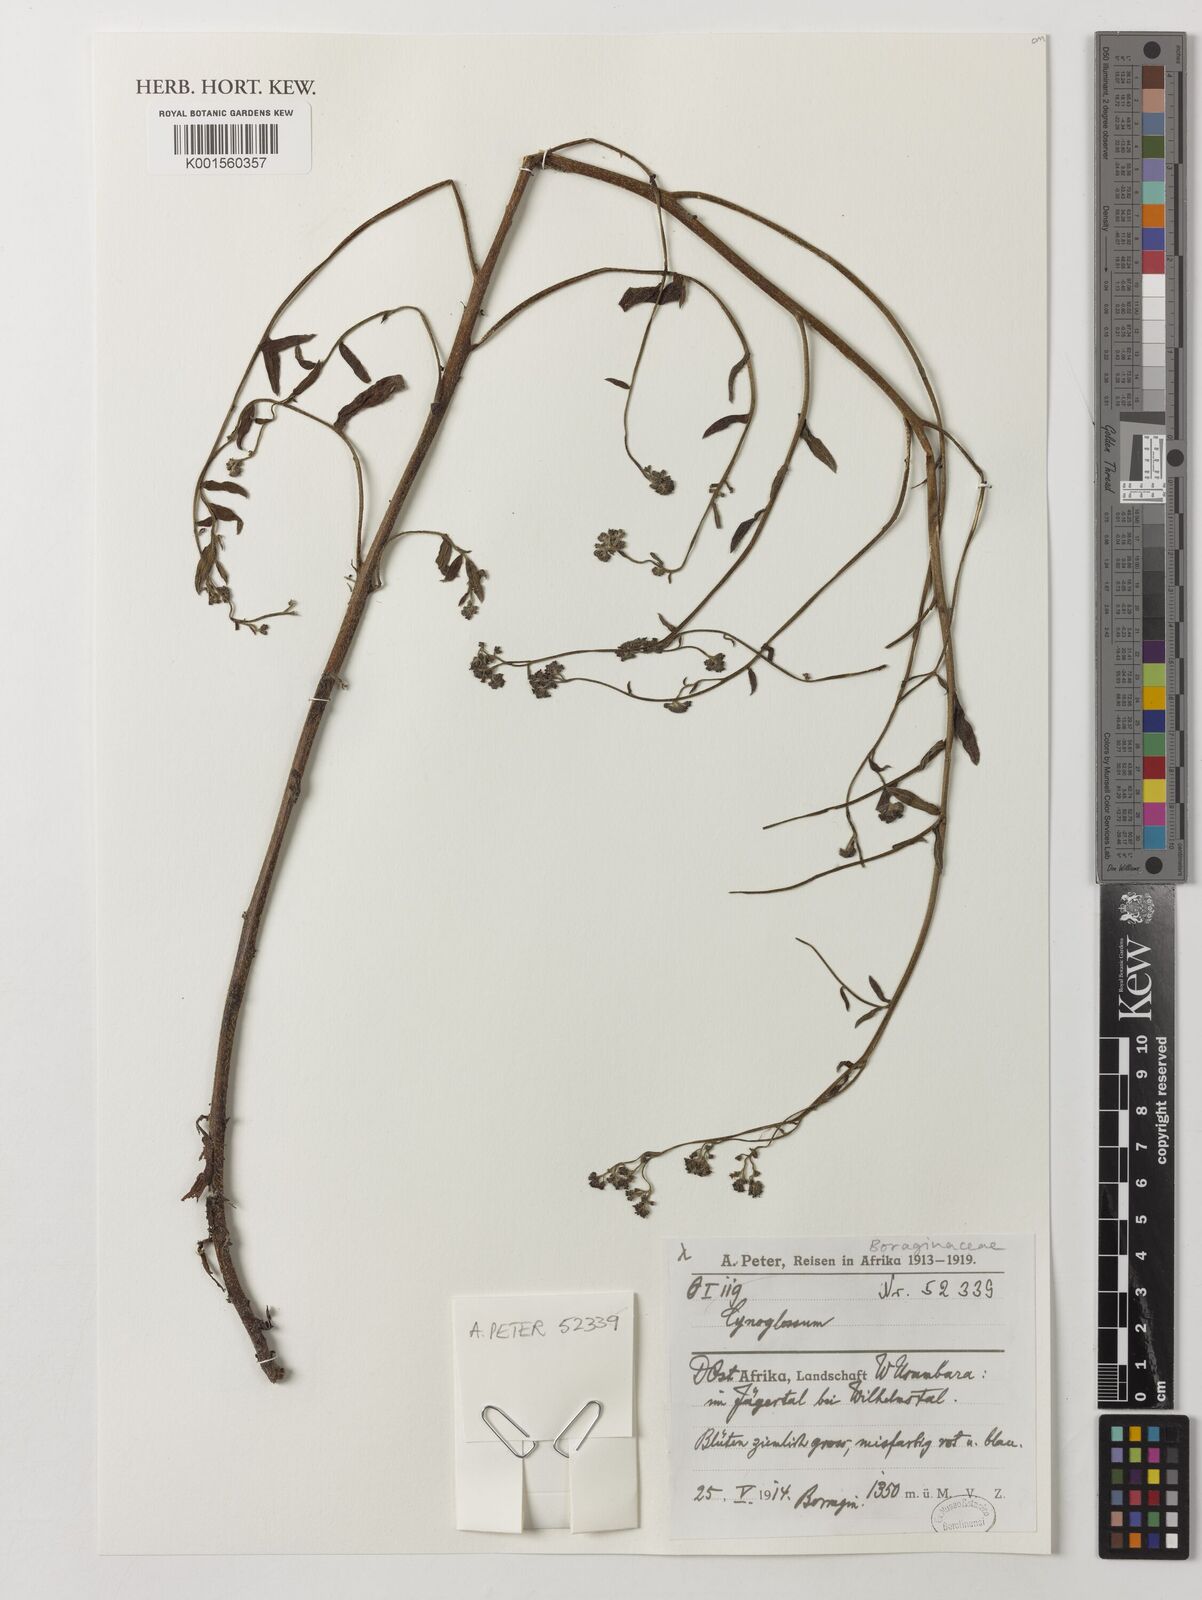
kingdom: Plantae
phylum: Tracheophyta
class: Magnoliopsida
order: Boraginales
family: Boraginaceae
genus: Cynoglossum
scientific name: Cynoglossum
